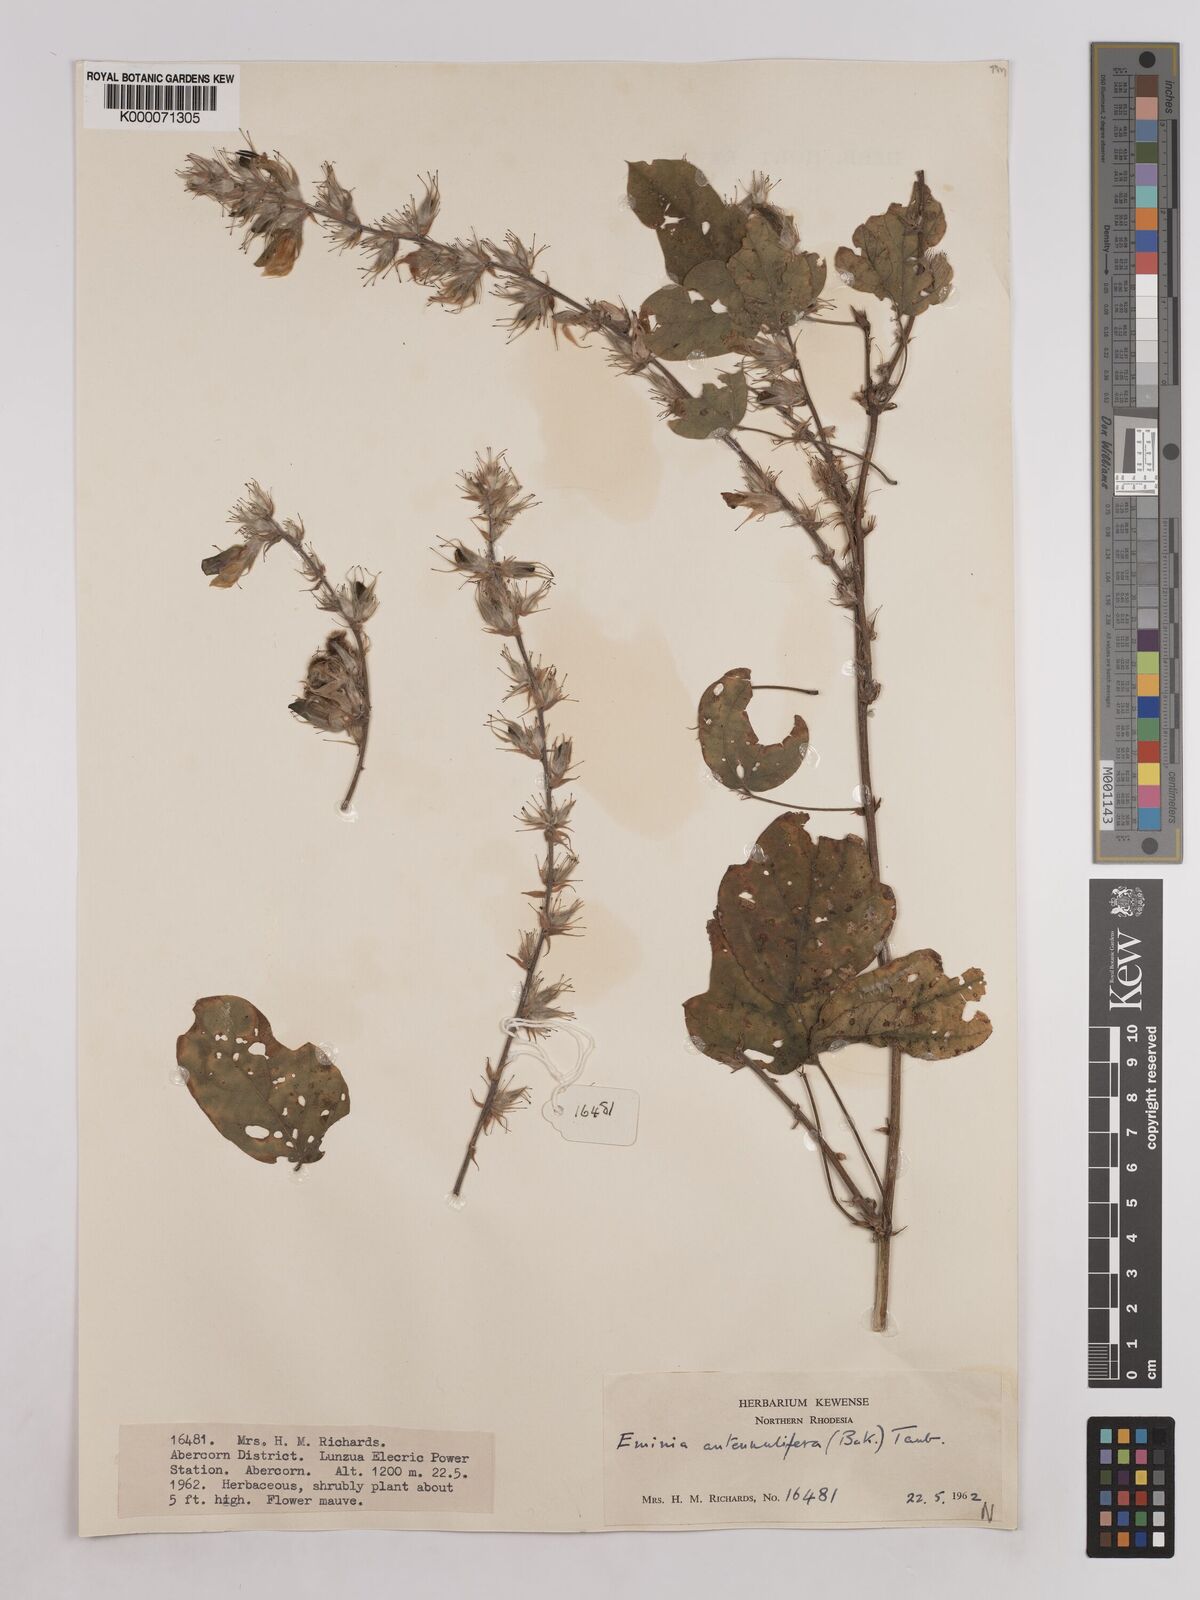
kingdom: Plantae
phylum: Tracheophyta
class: Magnoliopsida
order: Fabales
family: Fabaceae
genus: Eminia
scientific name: Eminia antennulifera
